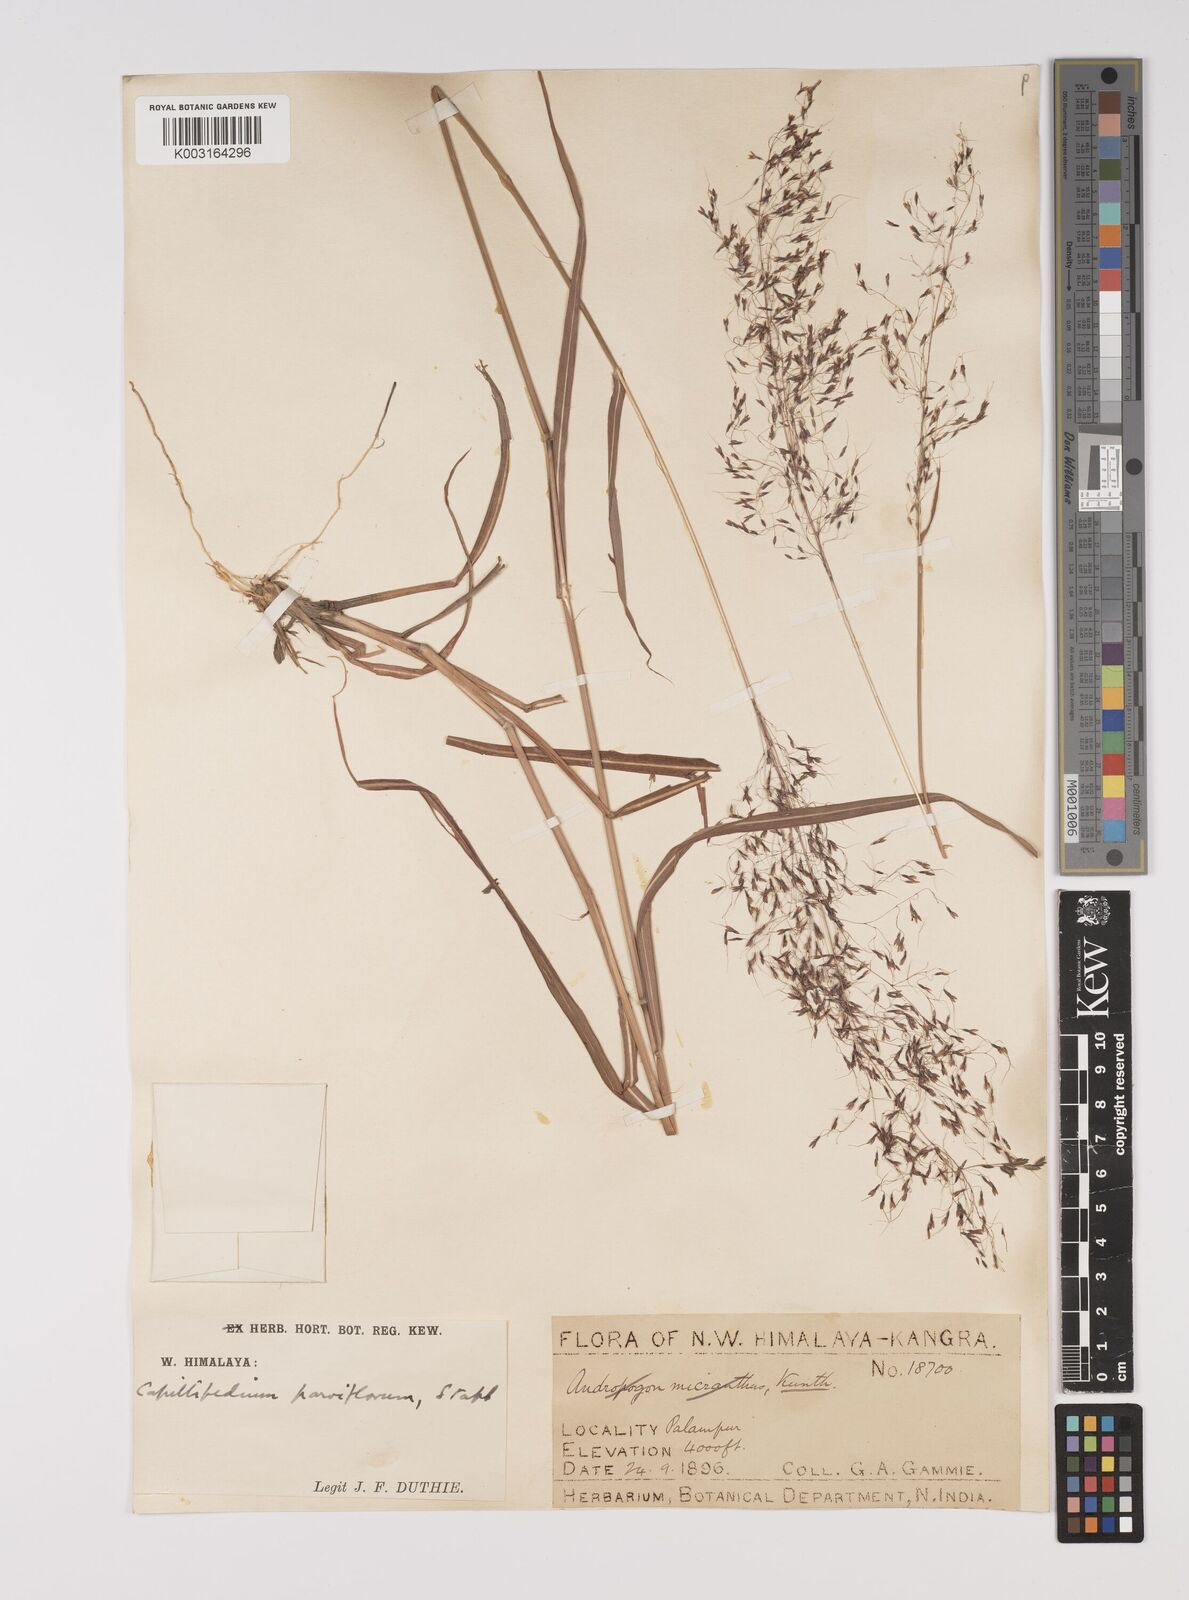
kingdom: Plantae
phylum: Tracheophyta
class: Liliopsida
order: Poales
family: Poaceae
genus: Capillipedium
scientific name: Capillipedium parviflorum
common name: Golden-beard
